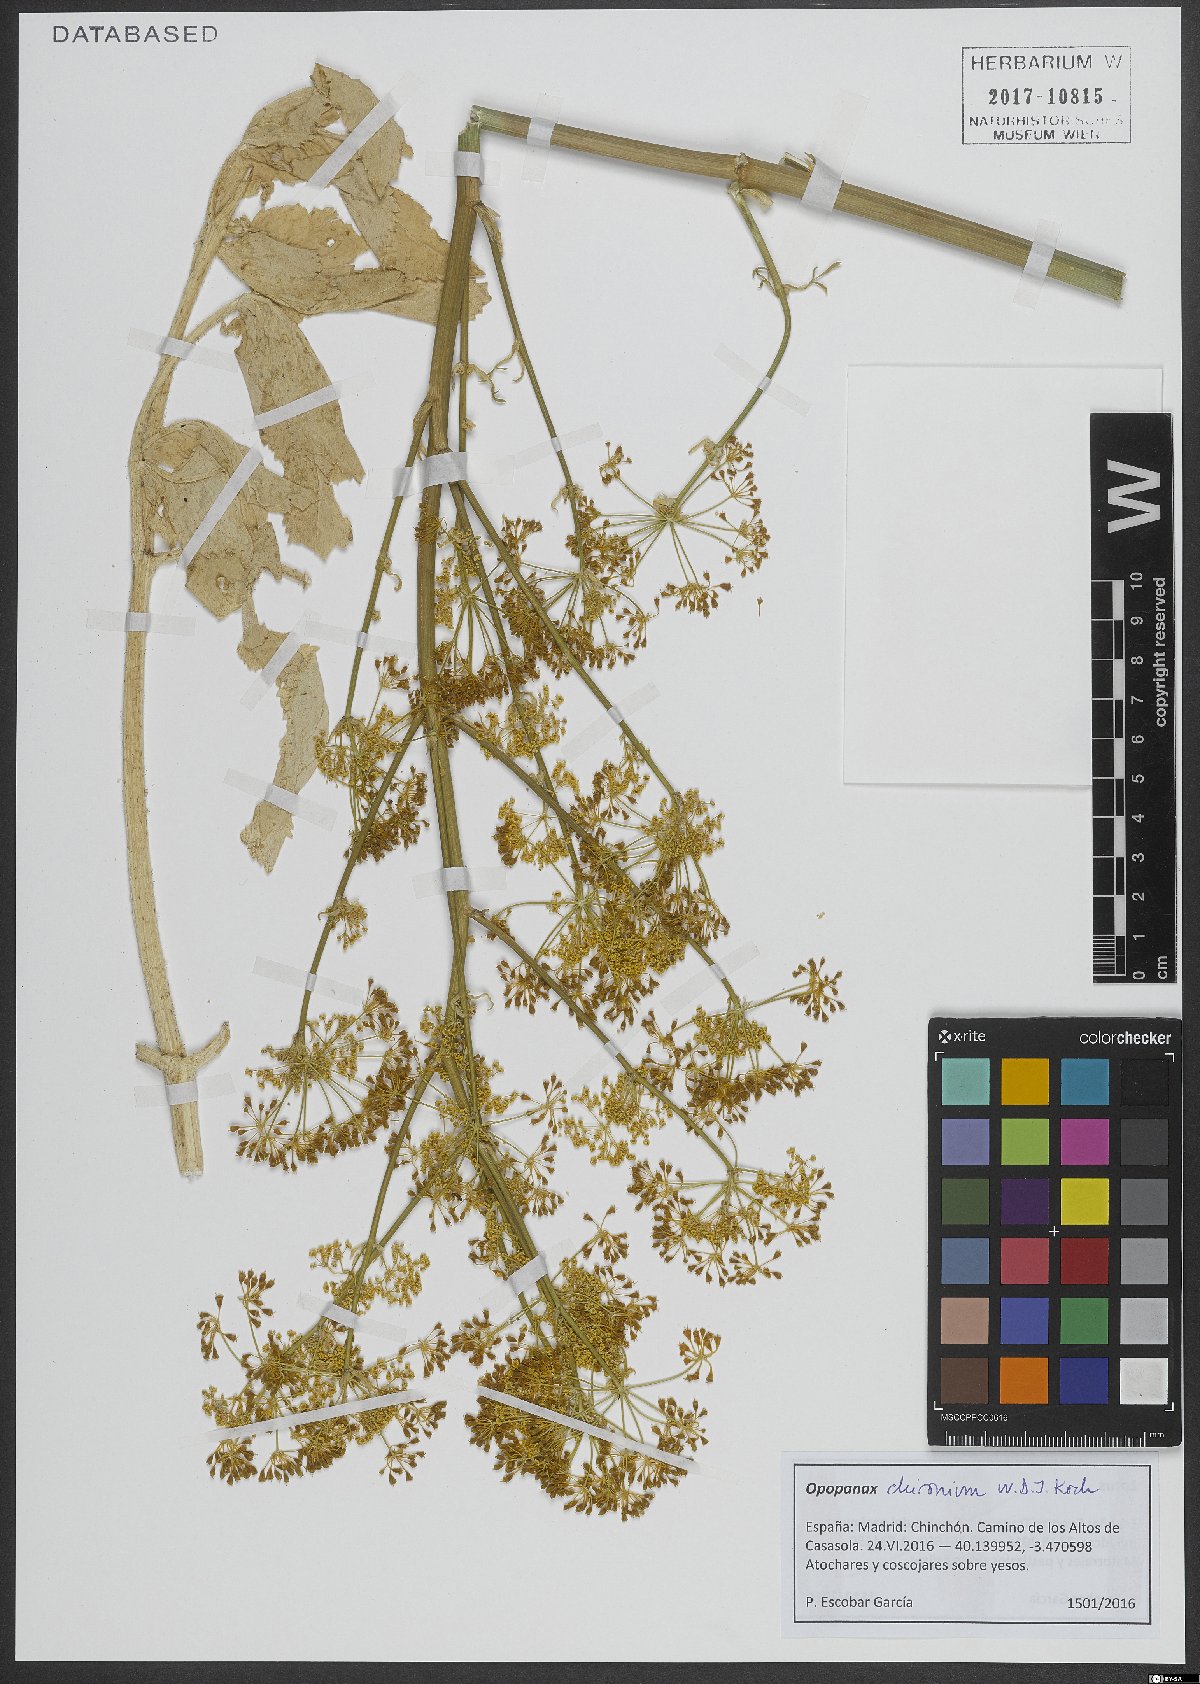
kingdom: Plantae
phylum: Tracheophyta
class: Magnoliopsida
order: Apiales
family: Apiaceae
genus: Opopanax
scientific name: Opopanax chironium
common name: Hercules-all-heal
